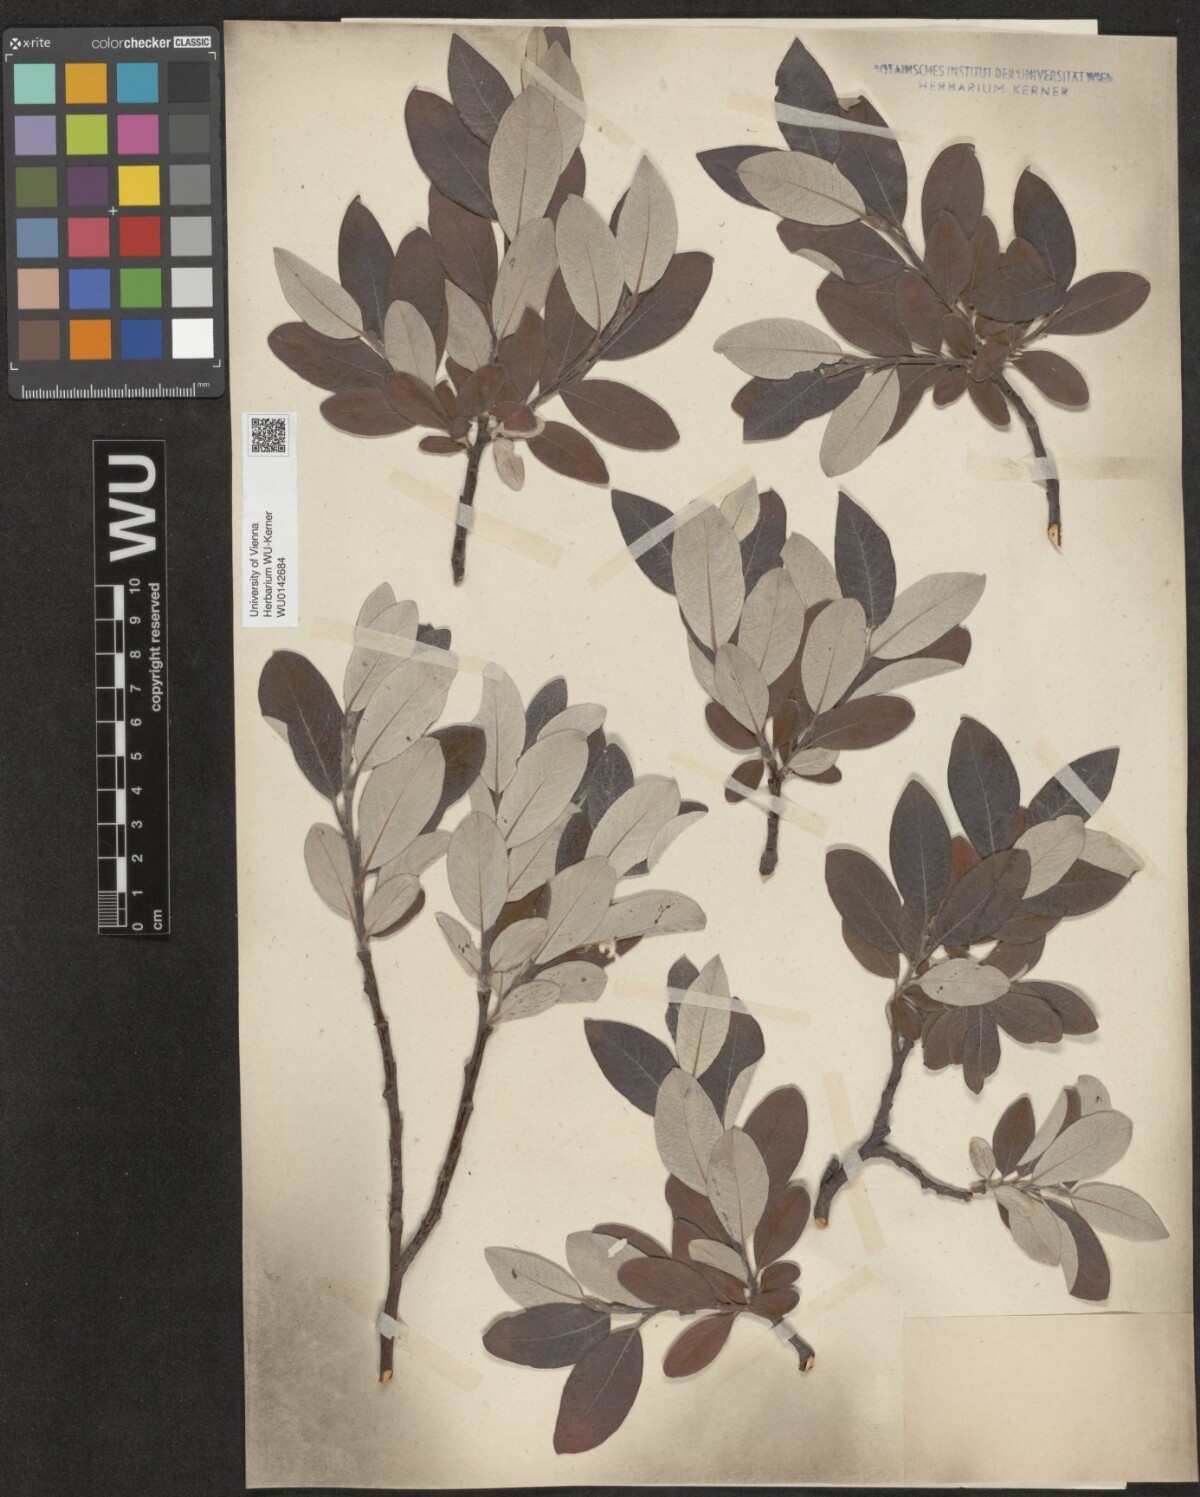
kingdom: Plantae
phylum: Tracheophyta
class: Magnoliopsida
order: Malpighiales
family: Salicaceae
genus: Salix
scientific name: Salix helvetica
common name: Swiss willow
